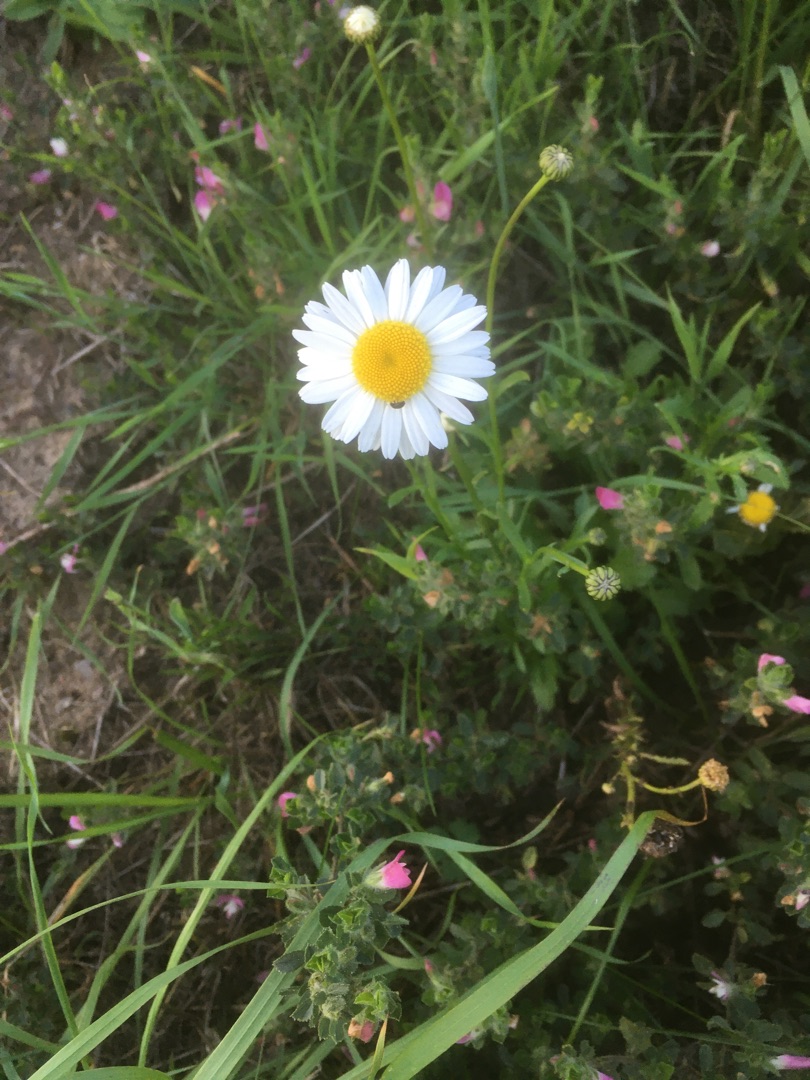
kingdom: Plantae
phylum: Tracheophyta
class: Magnoliopsida
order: Asterales
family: Asteraceae
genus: Leucanthemum
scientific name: Leucanthemum vulgare
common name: Hvid okseøje
